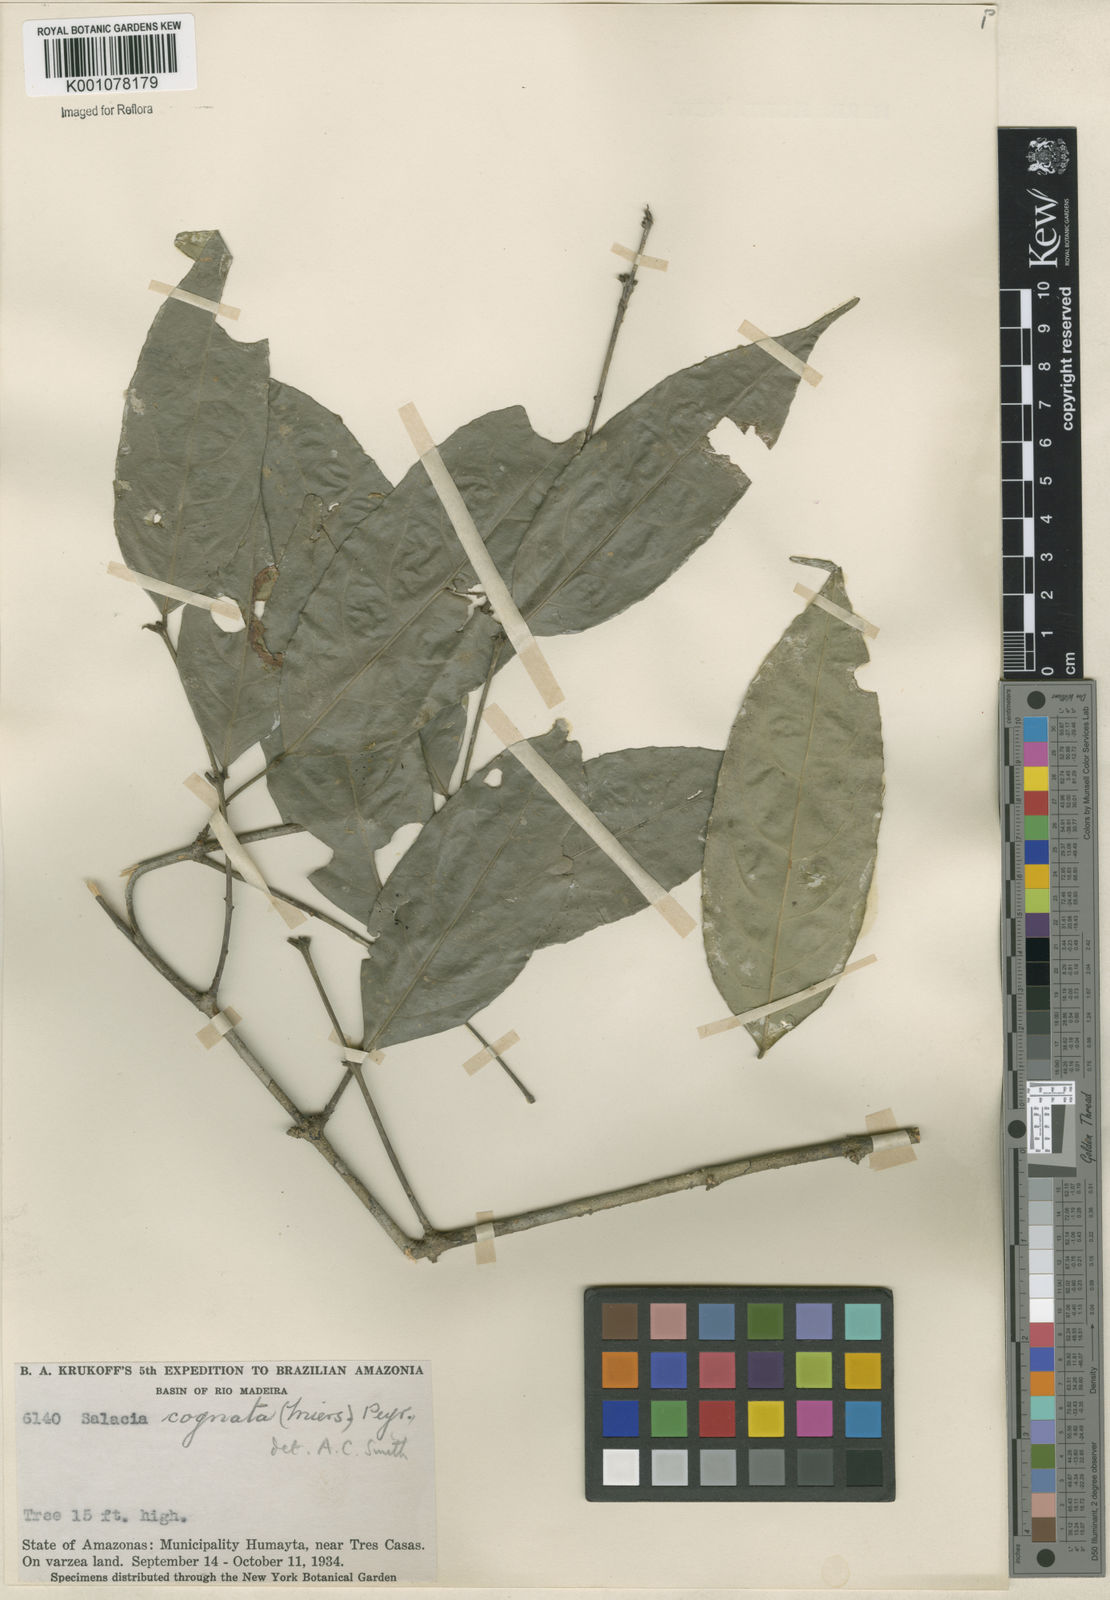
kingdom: Plantae
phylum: Tracheophyta
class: Magnoliopsida
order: Celastrales
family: Celastraceae
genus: Cheiloclinium
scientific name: Cheiloclinium cognatum
